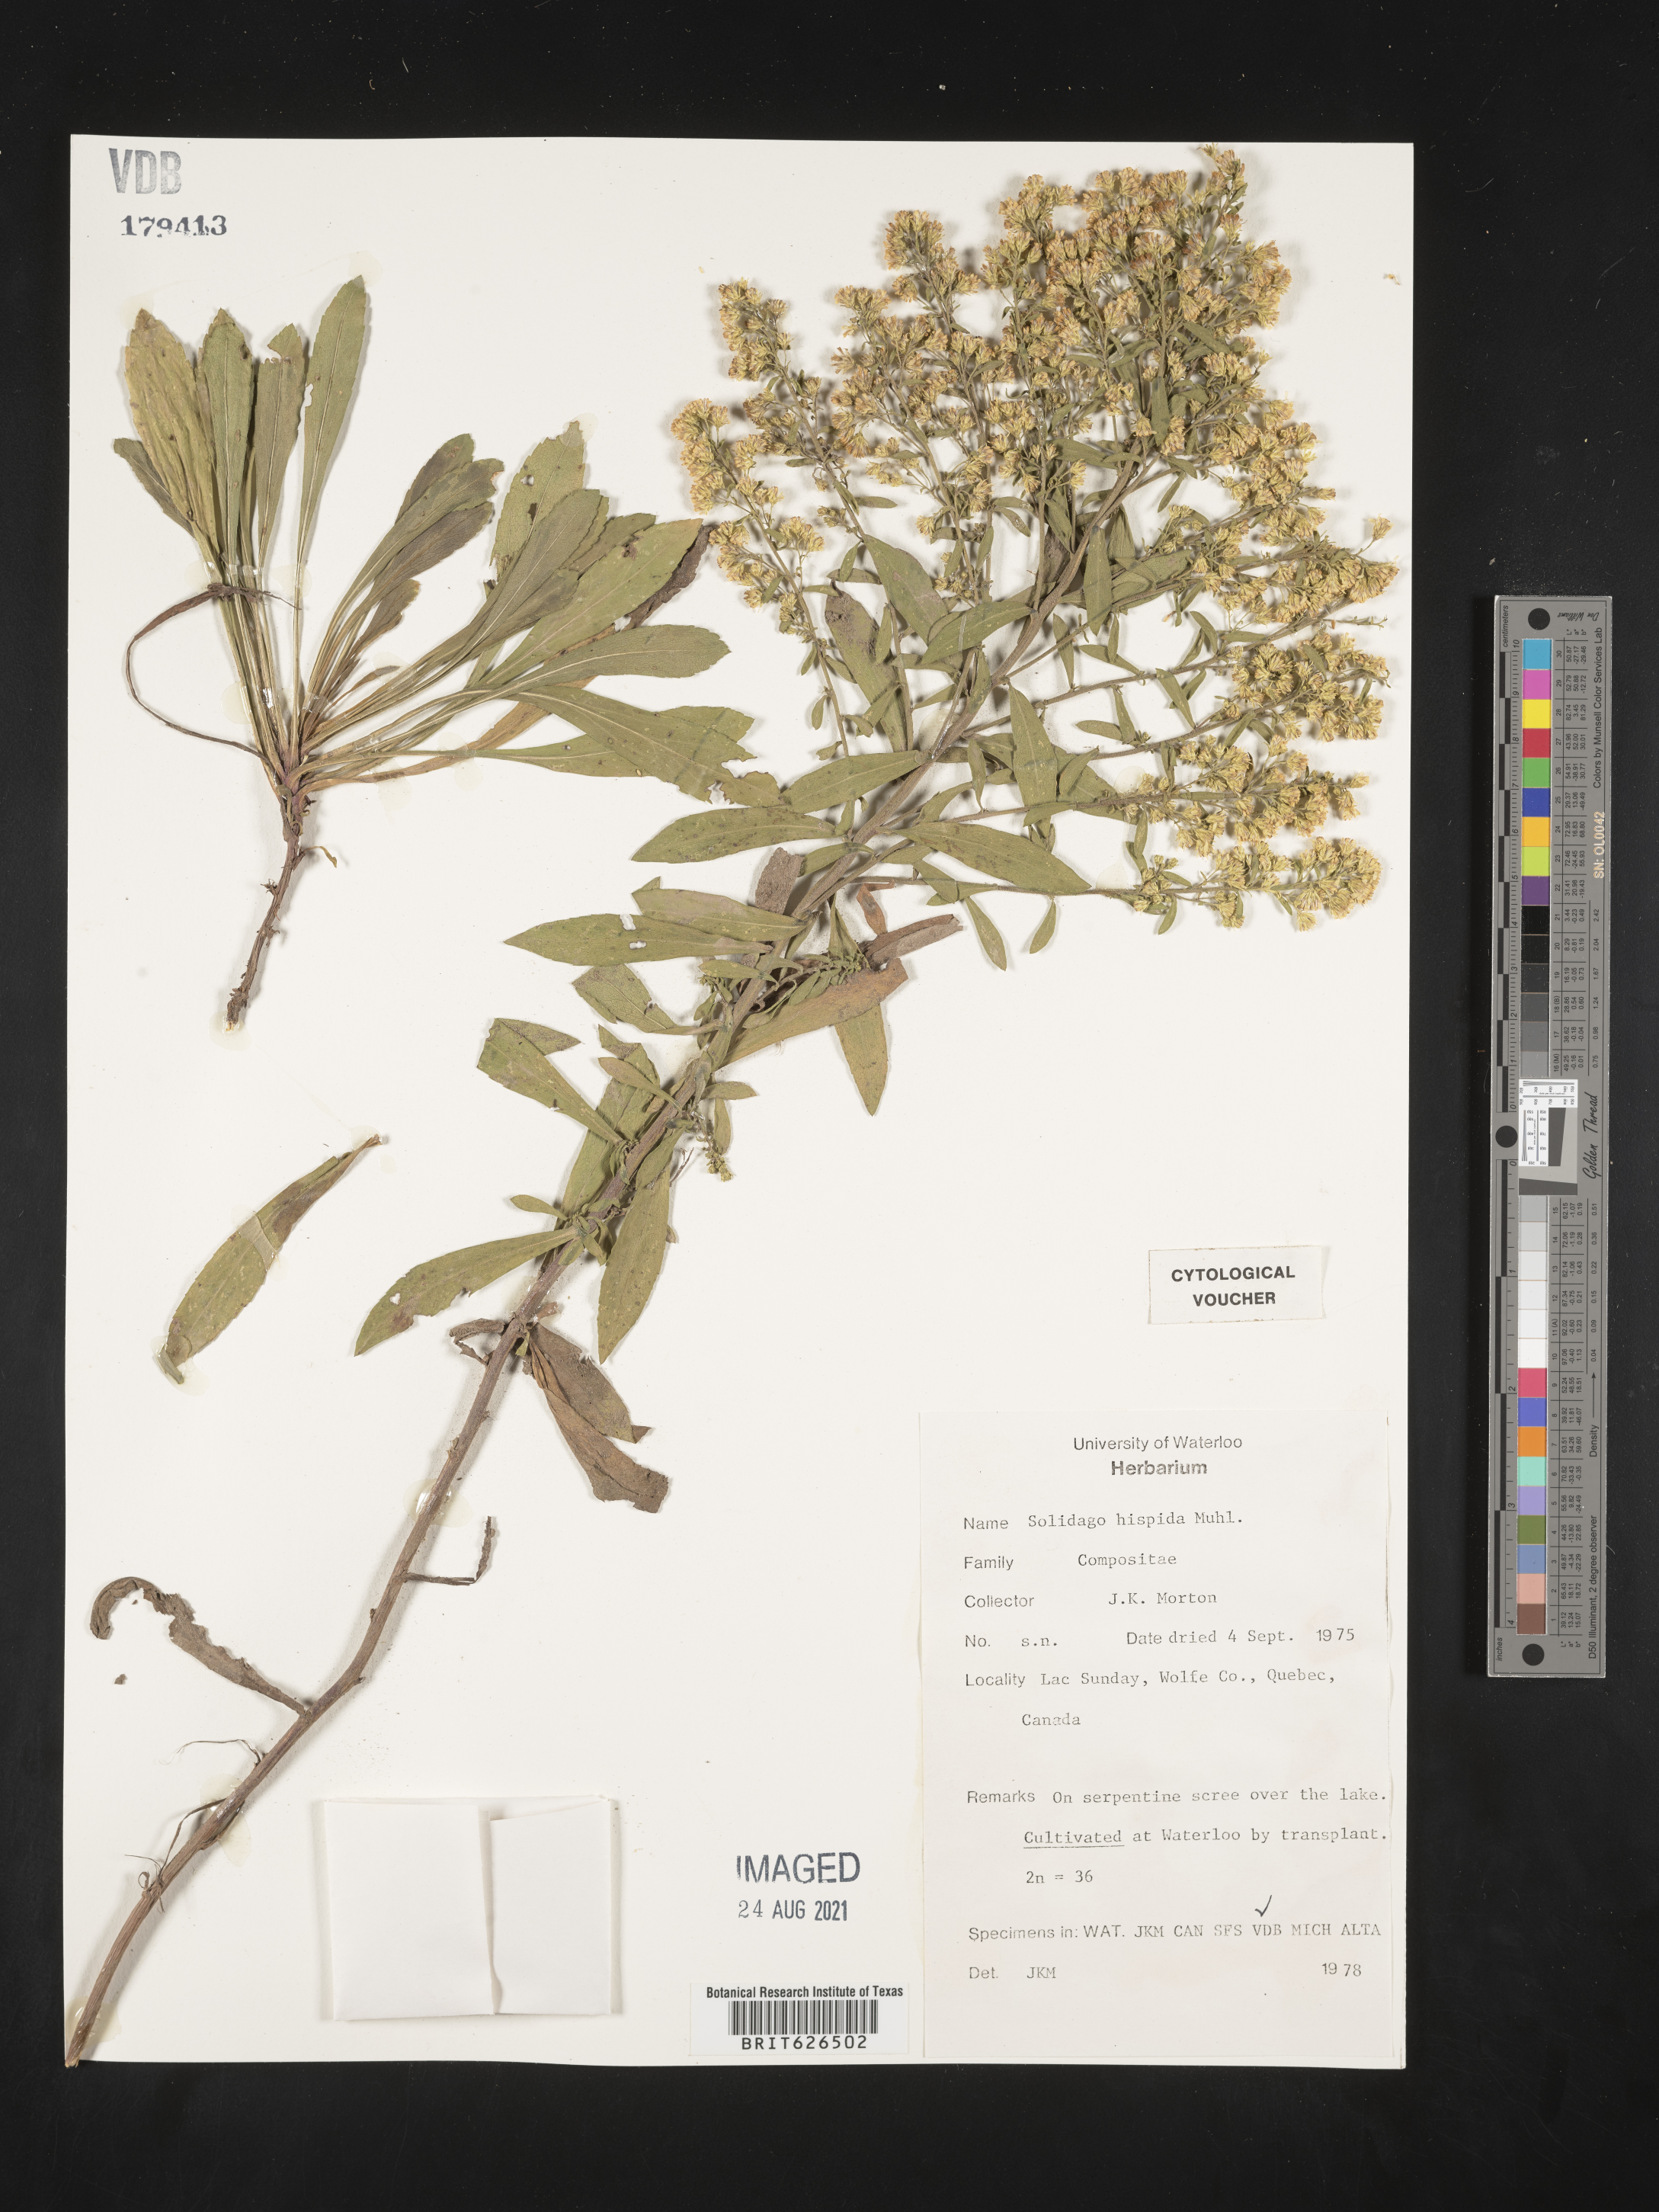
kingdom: Plantae
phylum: Tracheophyta
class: Magnoliopsida
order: Asterales
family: Asteraceae
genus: Solidago
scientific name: Solidago hispida
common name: Hairy goldenrod
